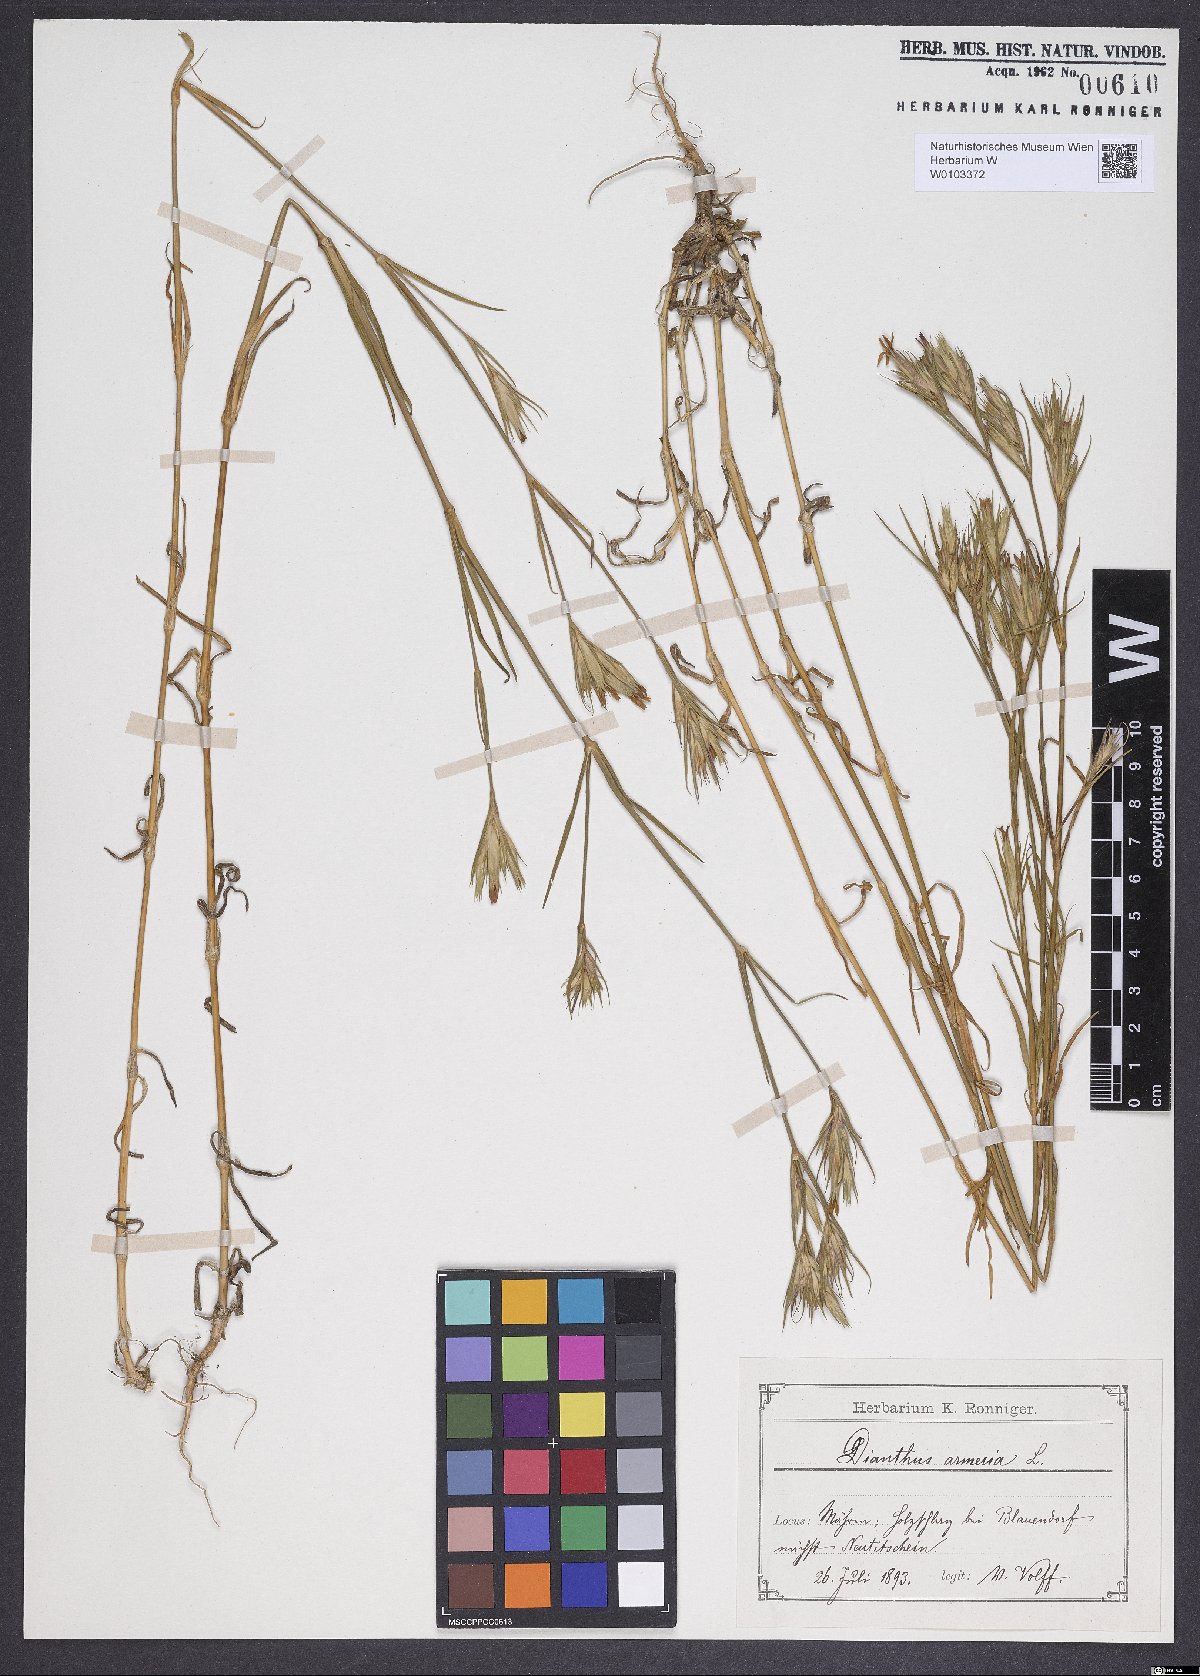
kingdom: Plantae
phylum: Tracheophyta
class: Magnoliopsida
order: Caryophyllales
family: Caryophyllaceae
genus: Dianthus
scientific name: Dianthus armeria
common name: Deptford pink
